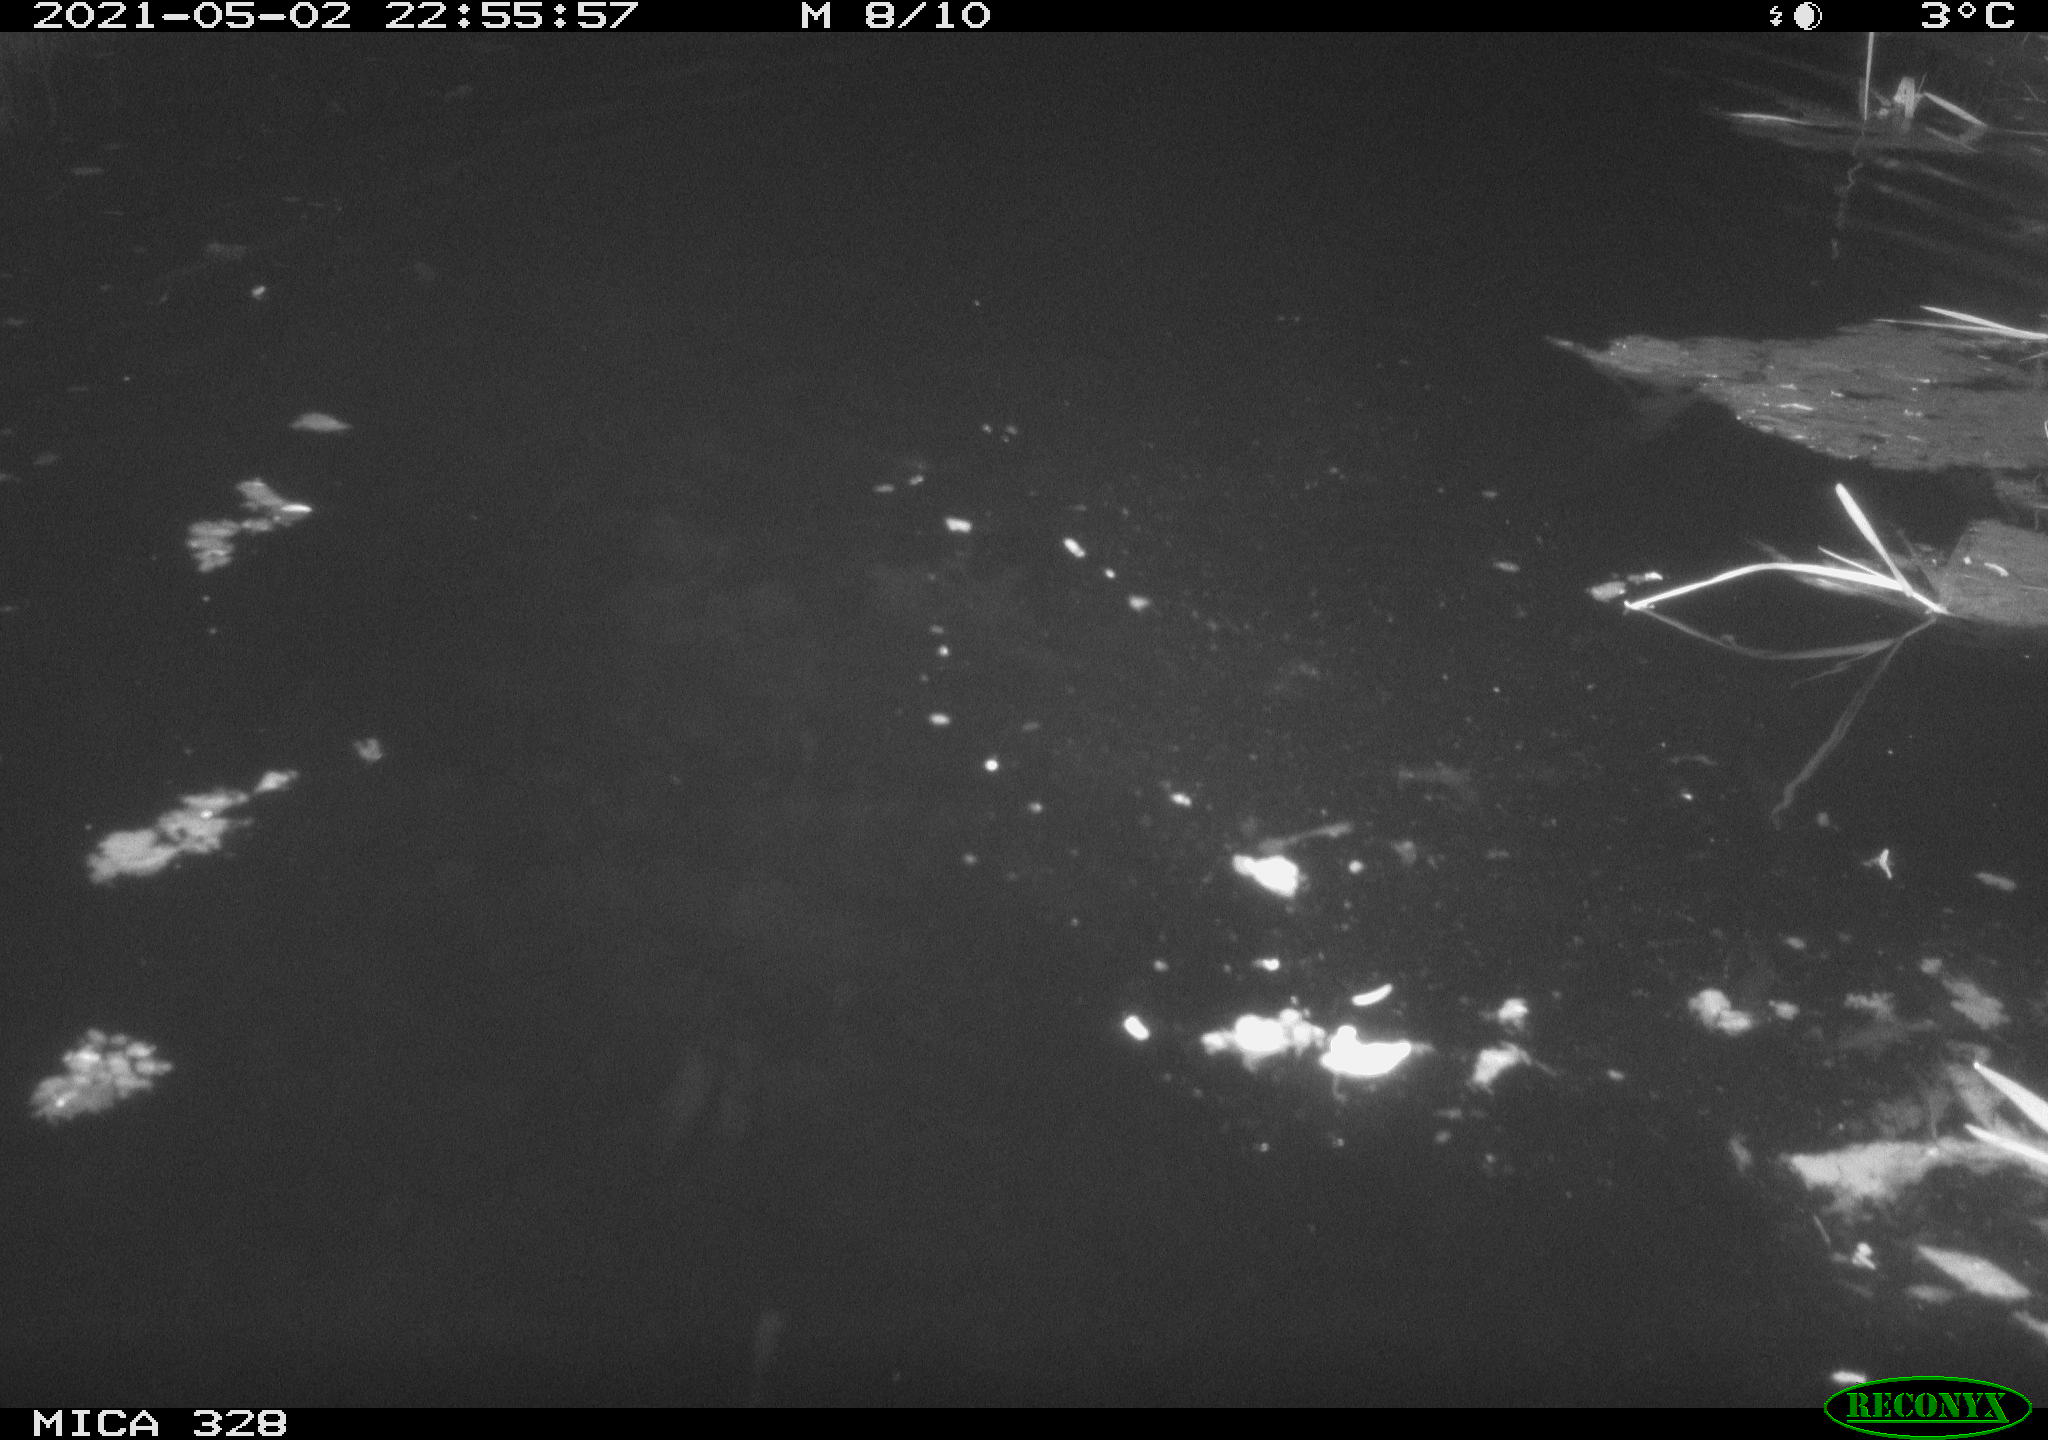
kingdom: Animalia
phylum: Chordata
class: Mammalia
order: Rodentia
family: Cricetidae
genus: Ondatra
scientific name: Ondatra zibethicus
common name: Muskrat
